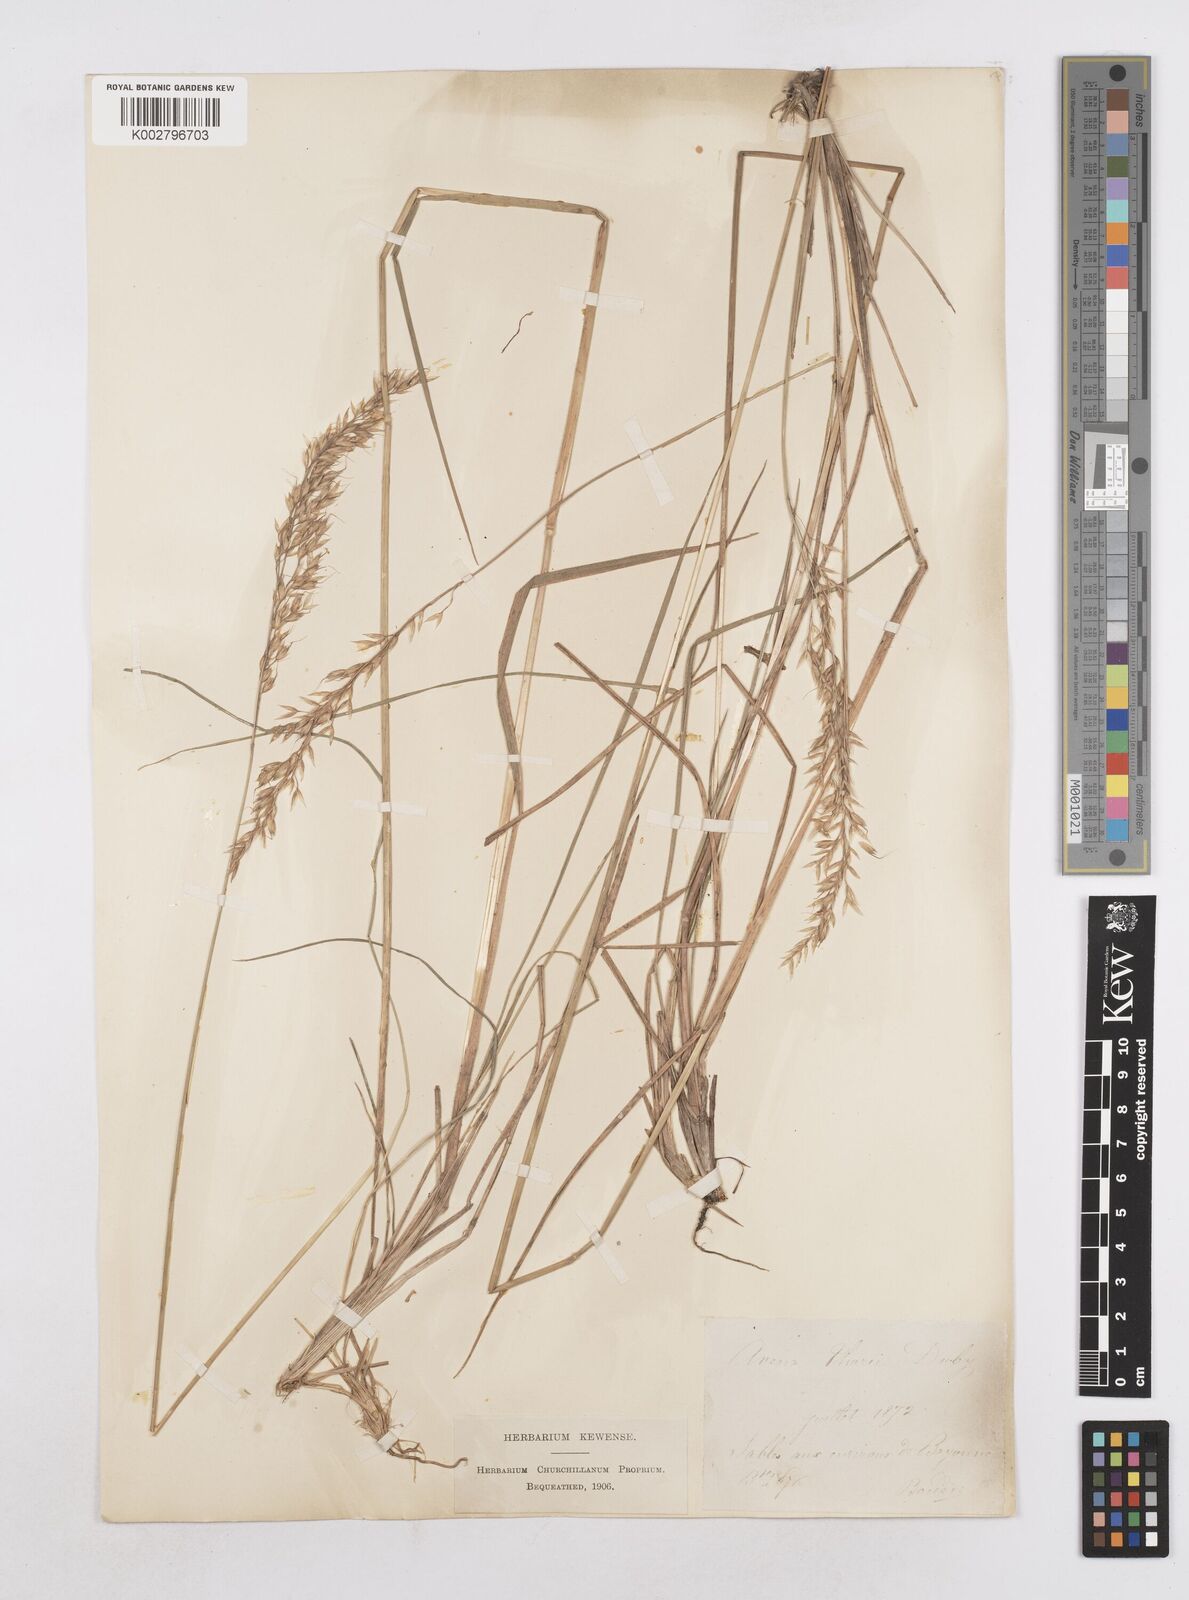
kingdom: Plantae
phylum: Tracheophyta
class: Liliopsida
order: Poales
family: Poaceae
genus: Arrhenatherum
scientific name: Arrhenatherum longifolium
